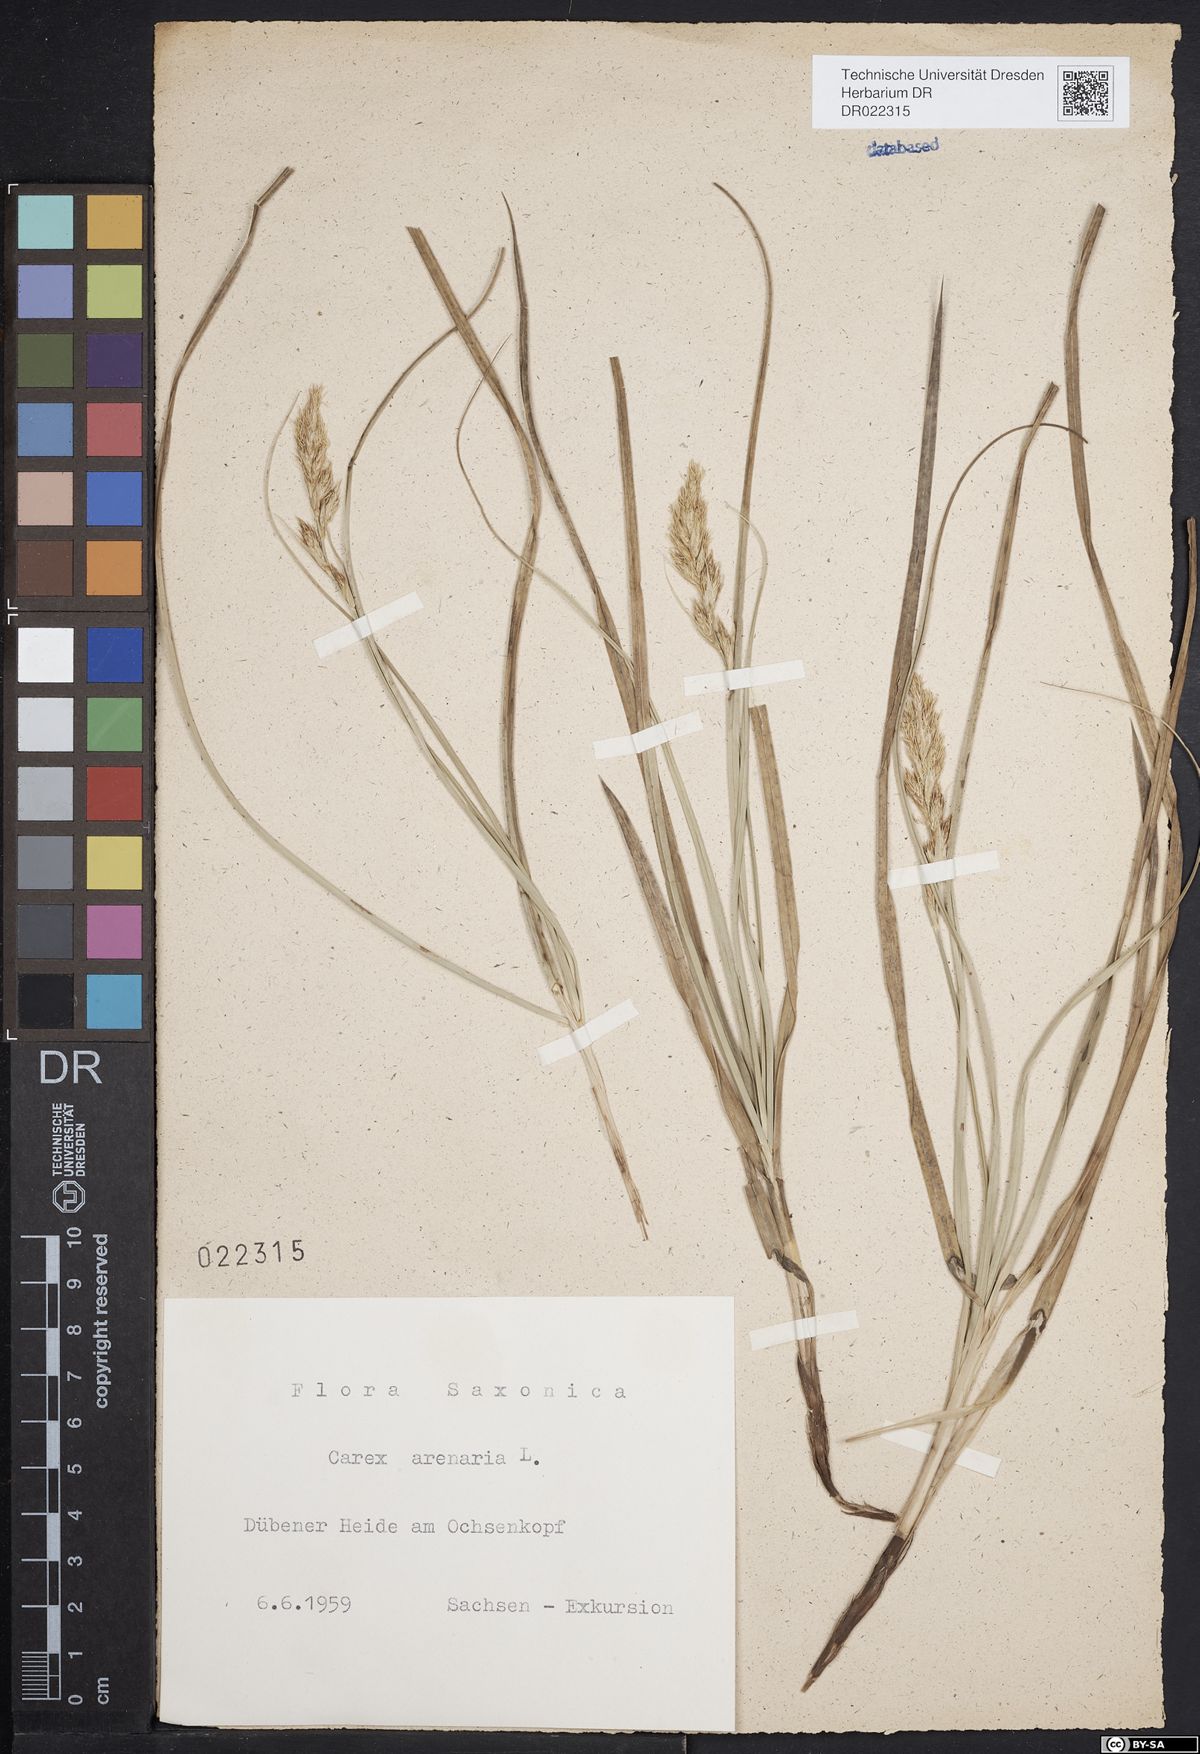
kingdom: Plantae
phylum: Tracheophyta
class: Liliopsida
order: Poales
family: Cyperaceae
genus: Carex
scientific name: Carex arenaria
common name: Sand sedge
